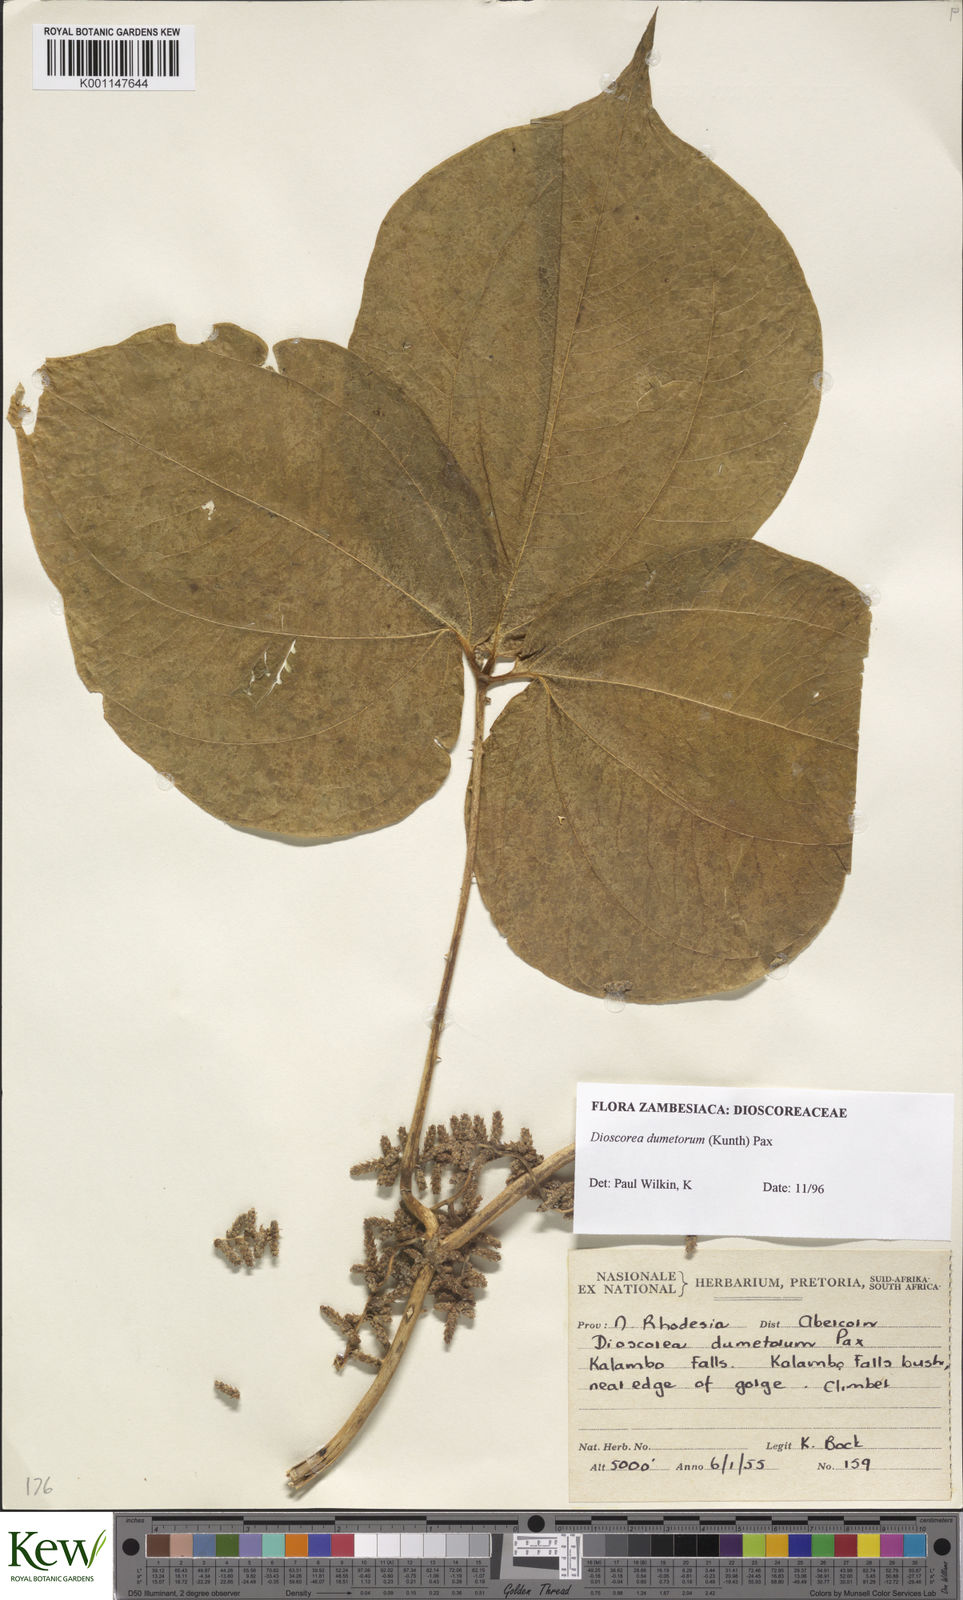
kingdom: Plantae
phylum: Tracheophyta
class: Liliopsida
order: Dioscoreales
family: Dioscoreaceae
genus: Dioscorea
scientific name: Dioscorea dumetorum
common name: African bitter yam
